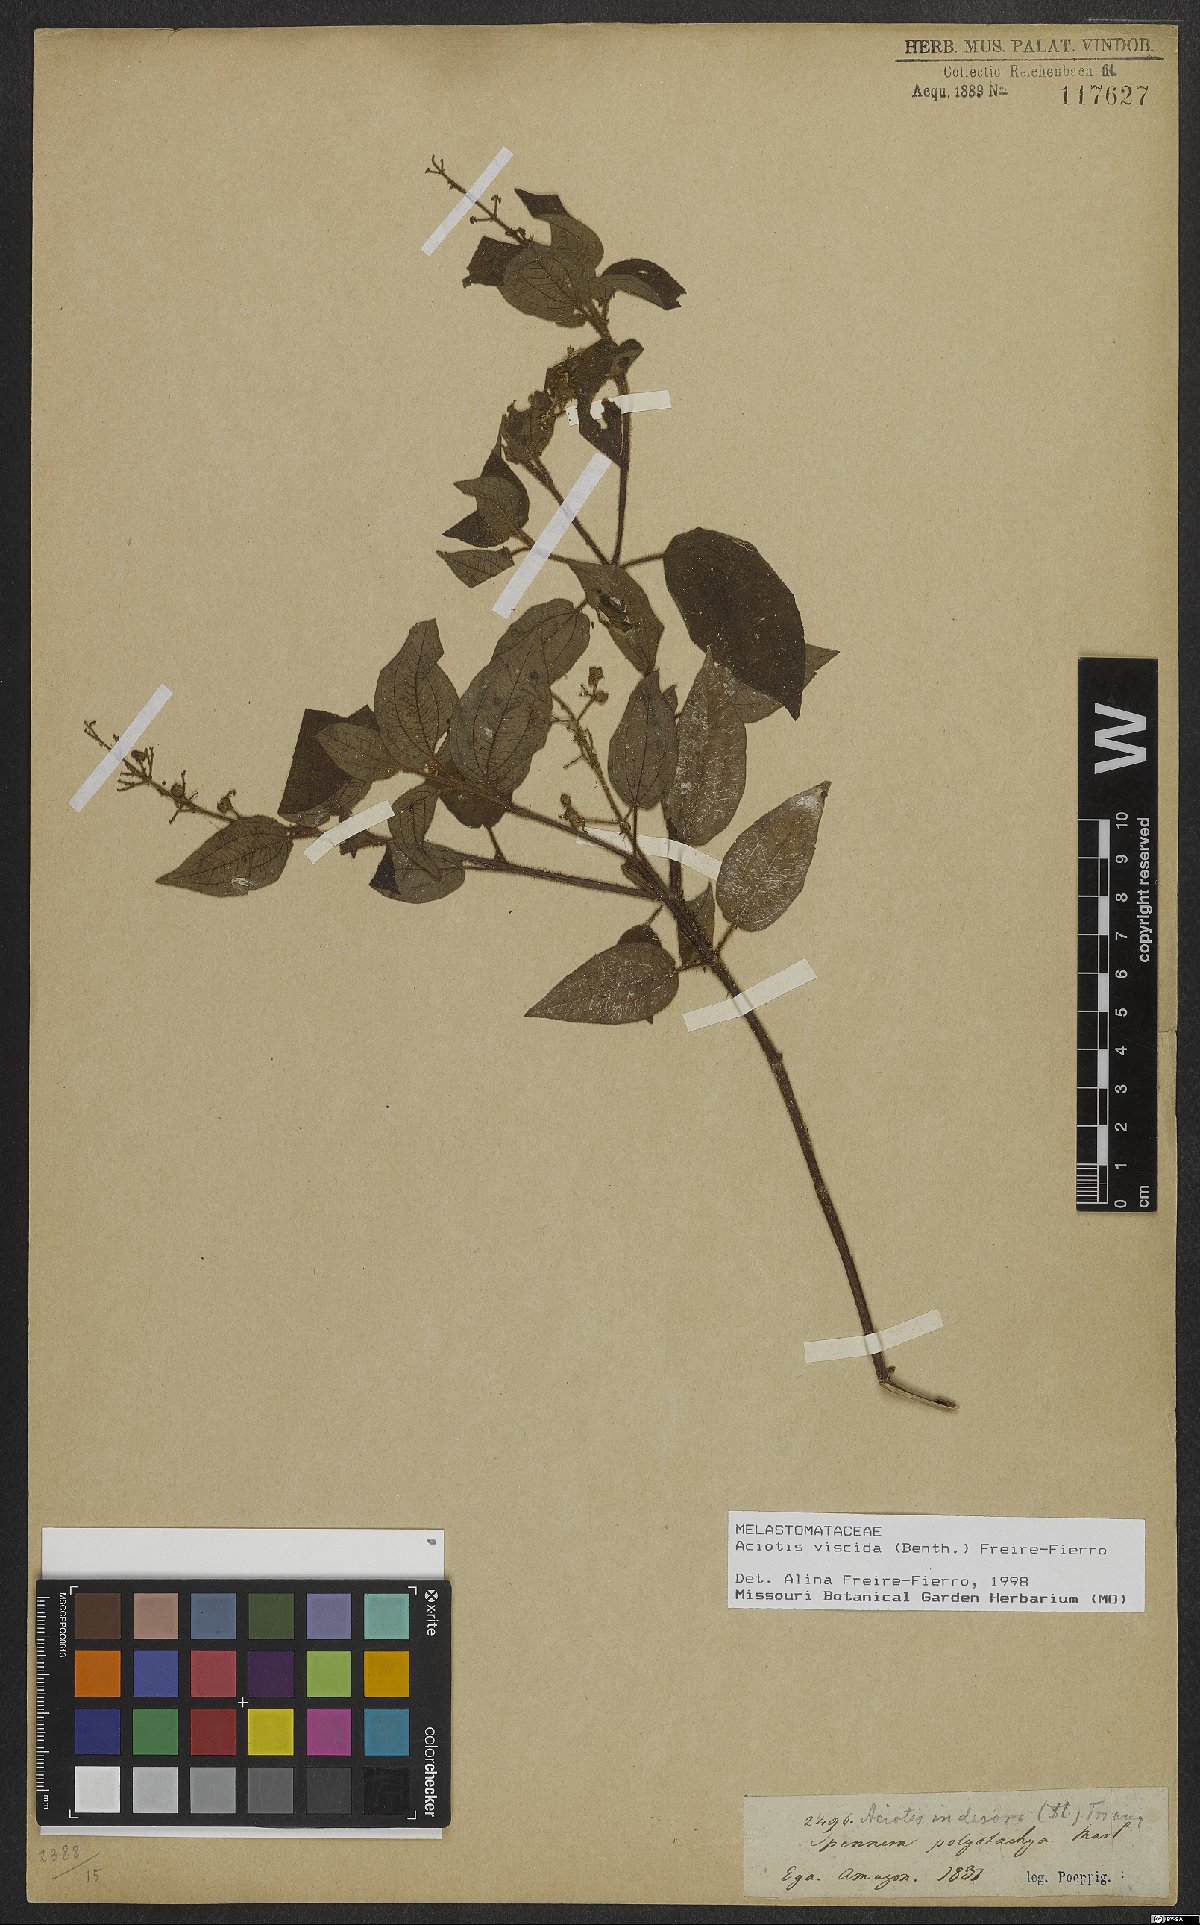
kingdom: Plantae
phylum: Tracheophyta
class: Magnoliopsida
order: Myrtales
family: Melastomataceae
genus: Aciotis
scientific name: Aciotis viscida
